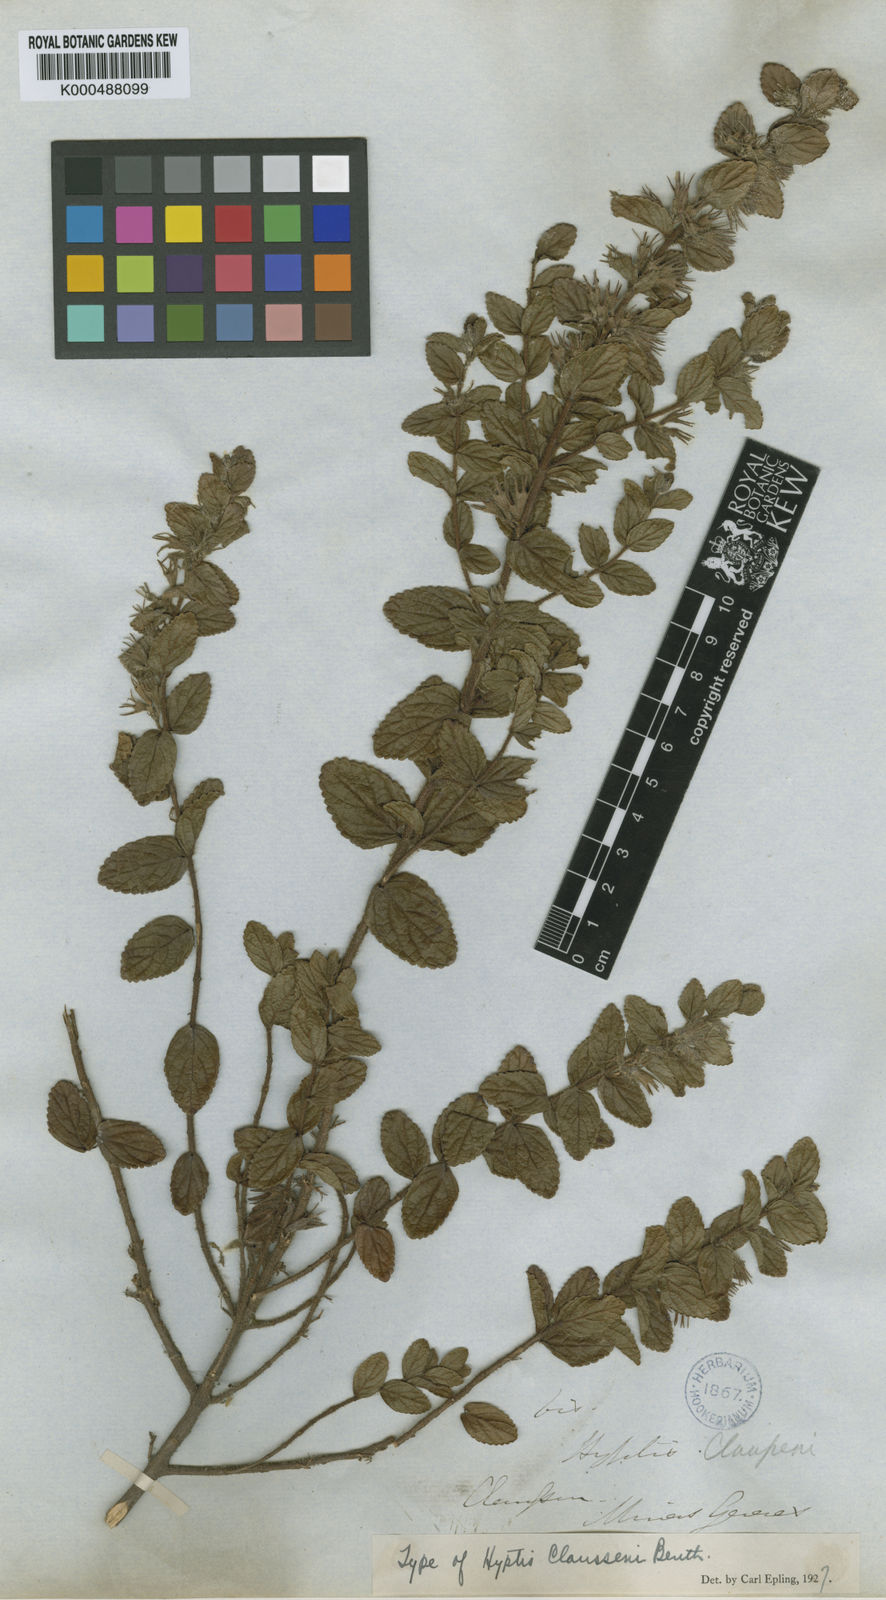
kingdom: Plantae
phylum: Tracheophyta
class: Magnoliopsida
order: Lamiales
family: Lamiaceae
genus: Hyptidendron
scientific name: Hyptidendron claussenii
